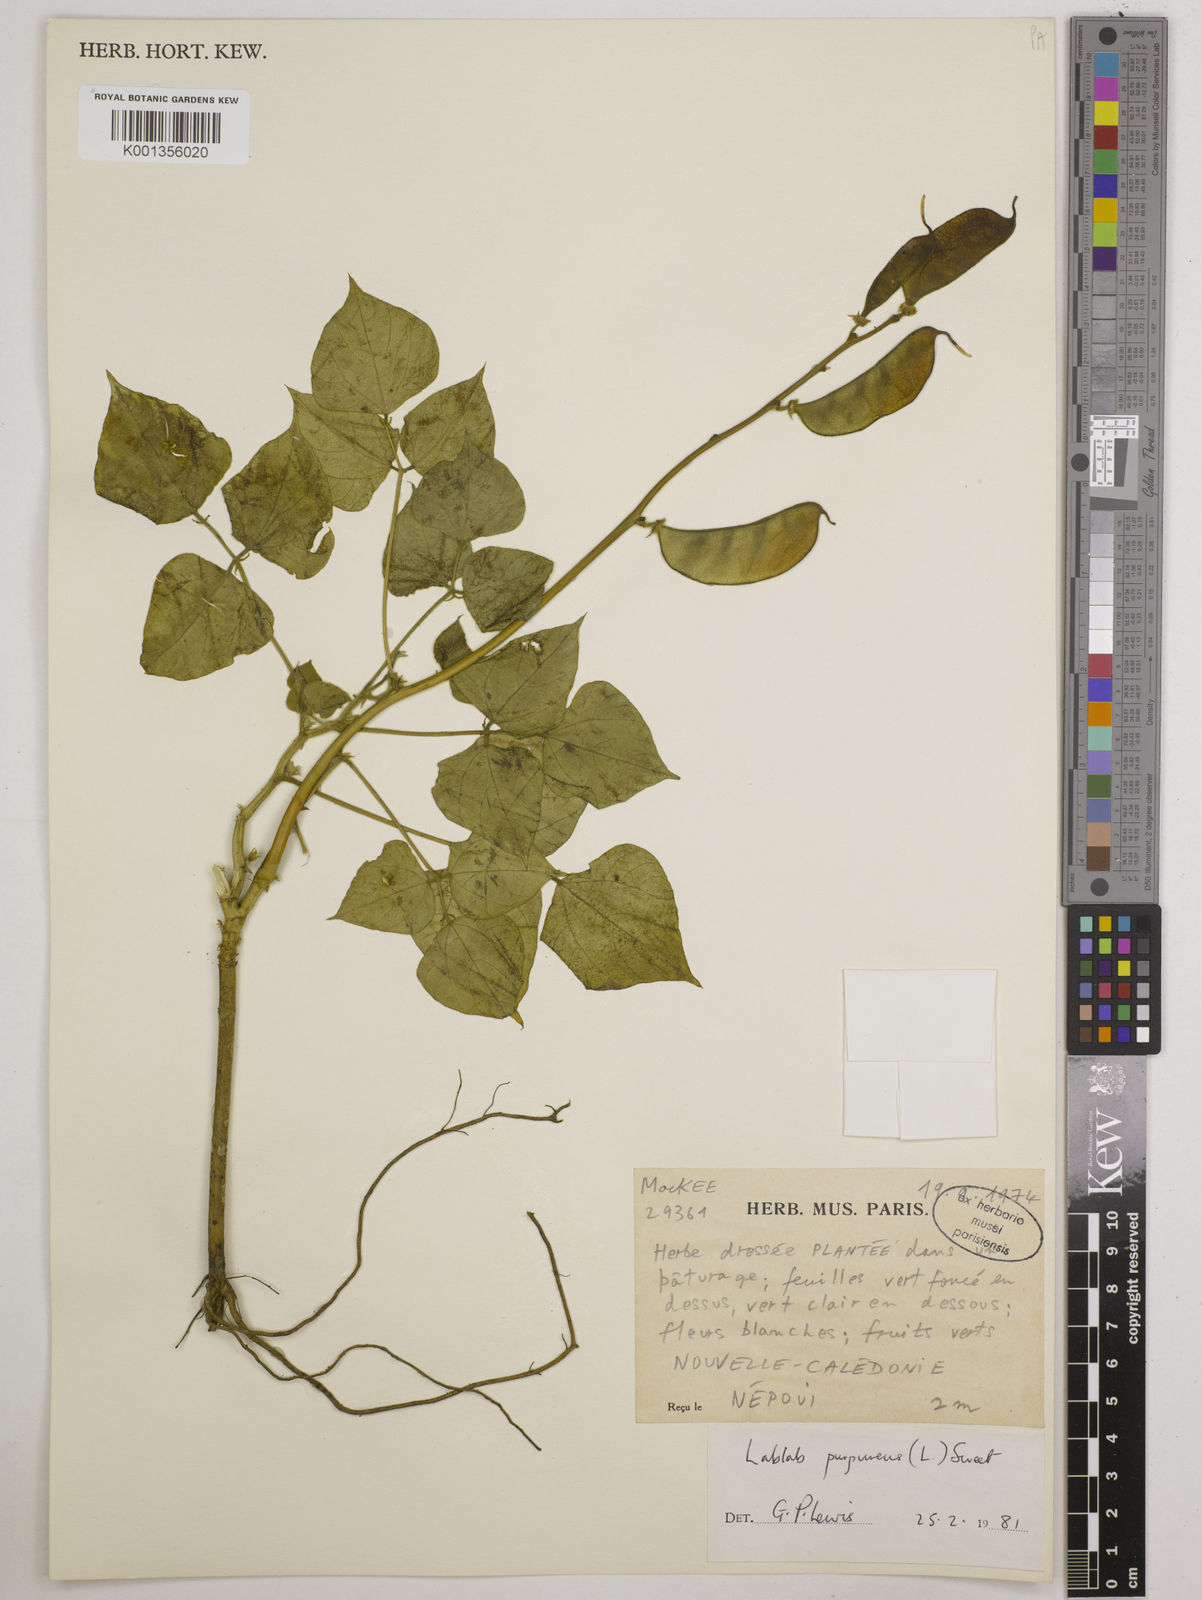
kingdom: Plantae
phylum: Tracheophyta
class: Magnoliopsida
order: Fabales
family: Fabaceae
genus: Lablab
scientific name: Lablab purpureus
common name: Lablab-bean
